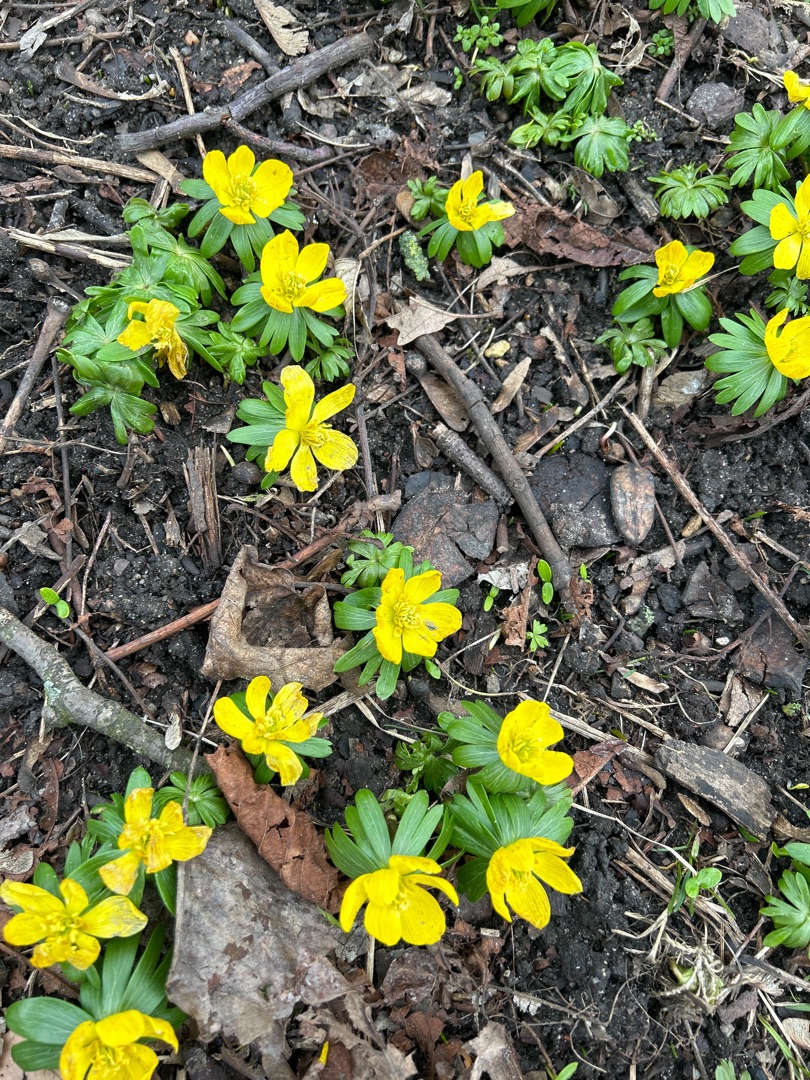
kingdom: Plantae
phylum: Tracheophyta
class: Magnoliopsida
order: Ranunculales
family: Ranunculaceae
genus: Eranthis
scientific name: Eranthis hyemalis
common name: Erantis
